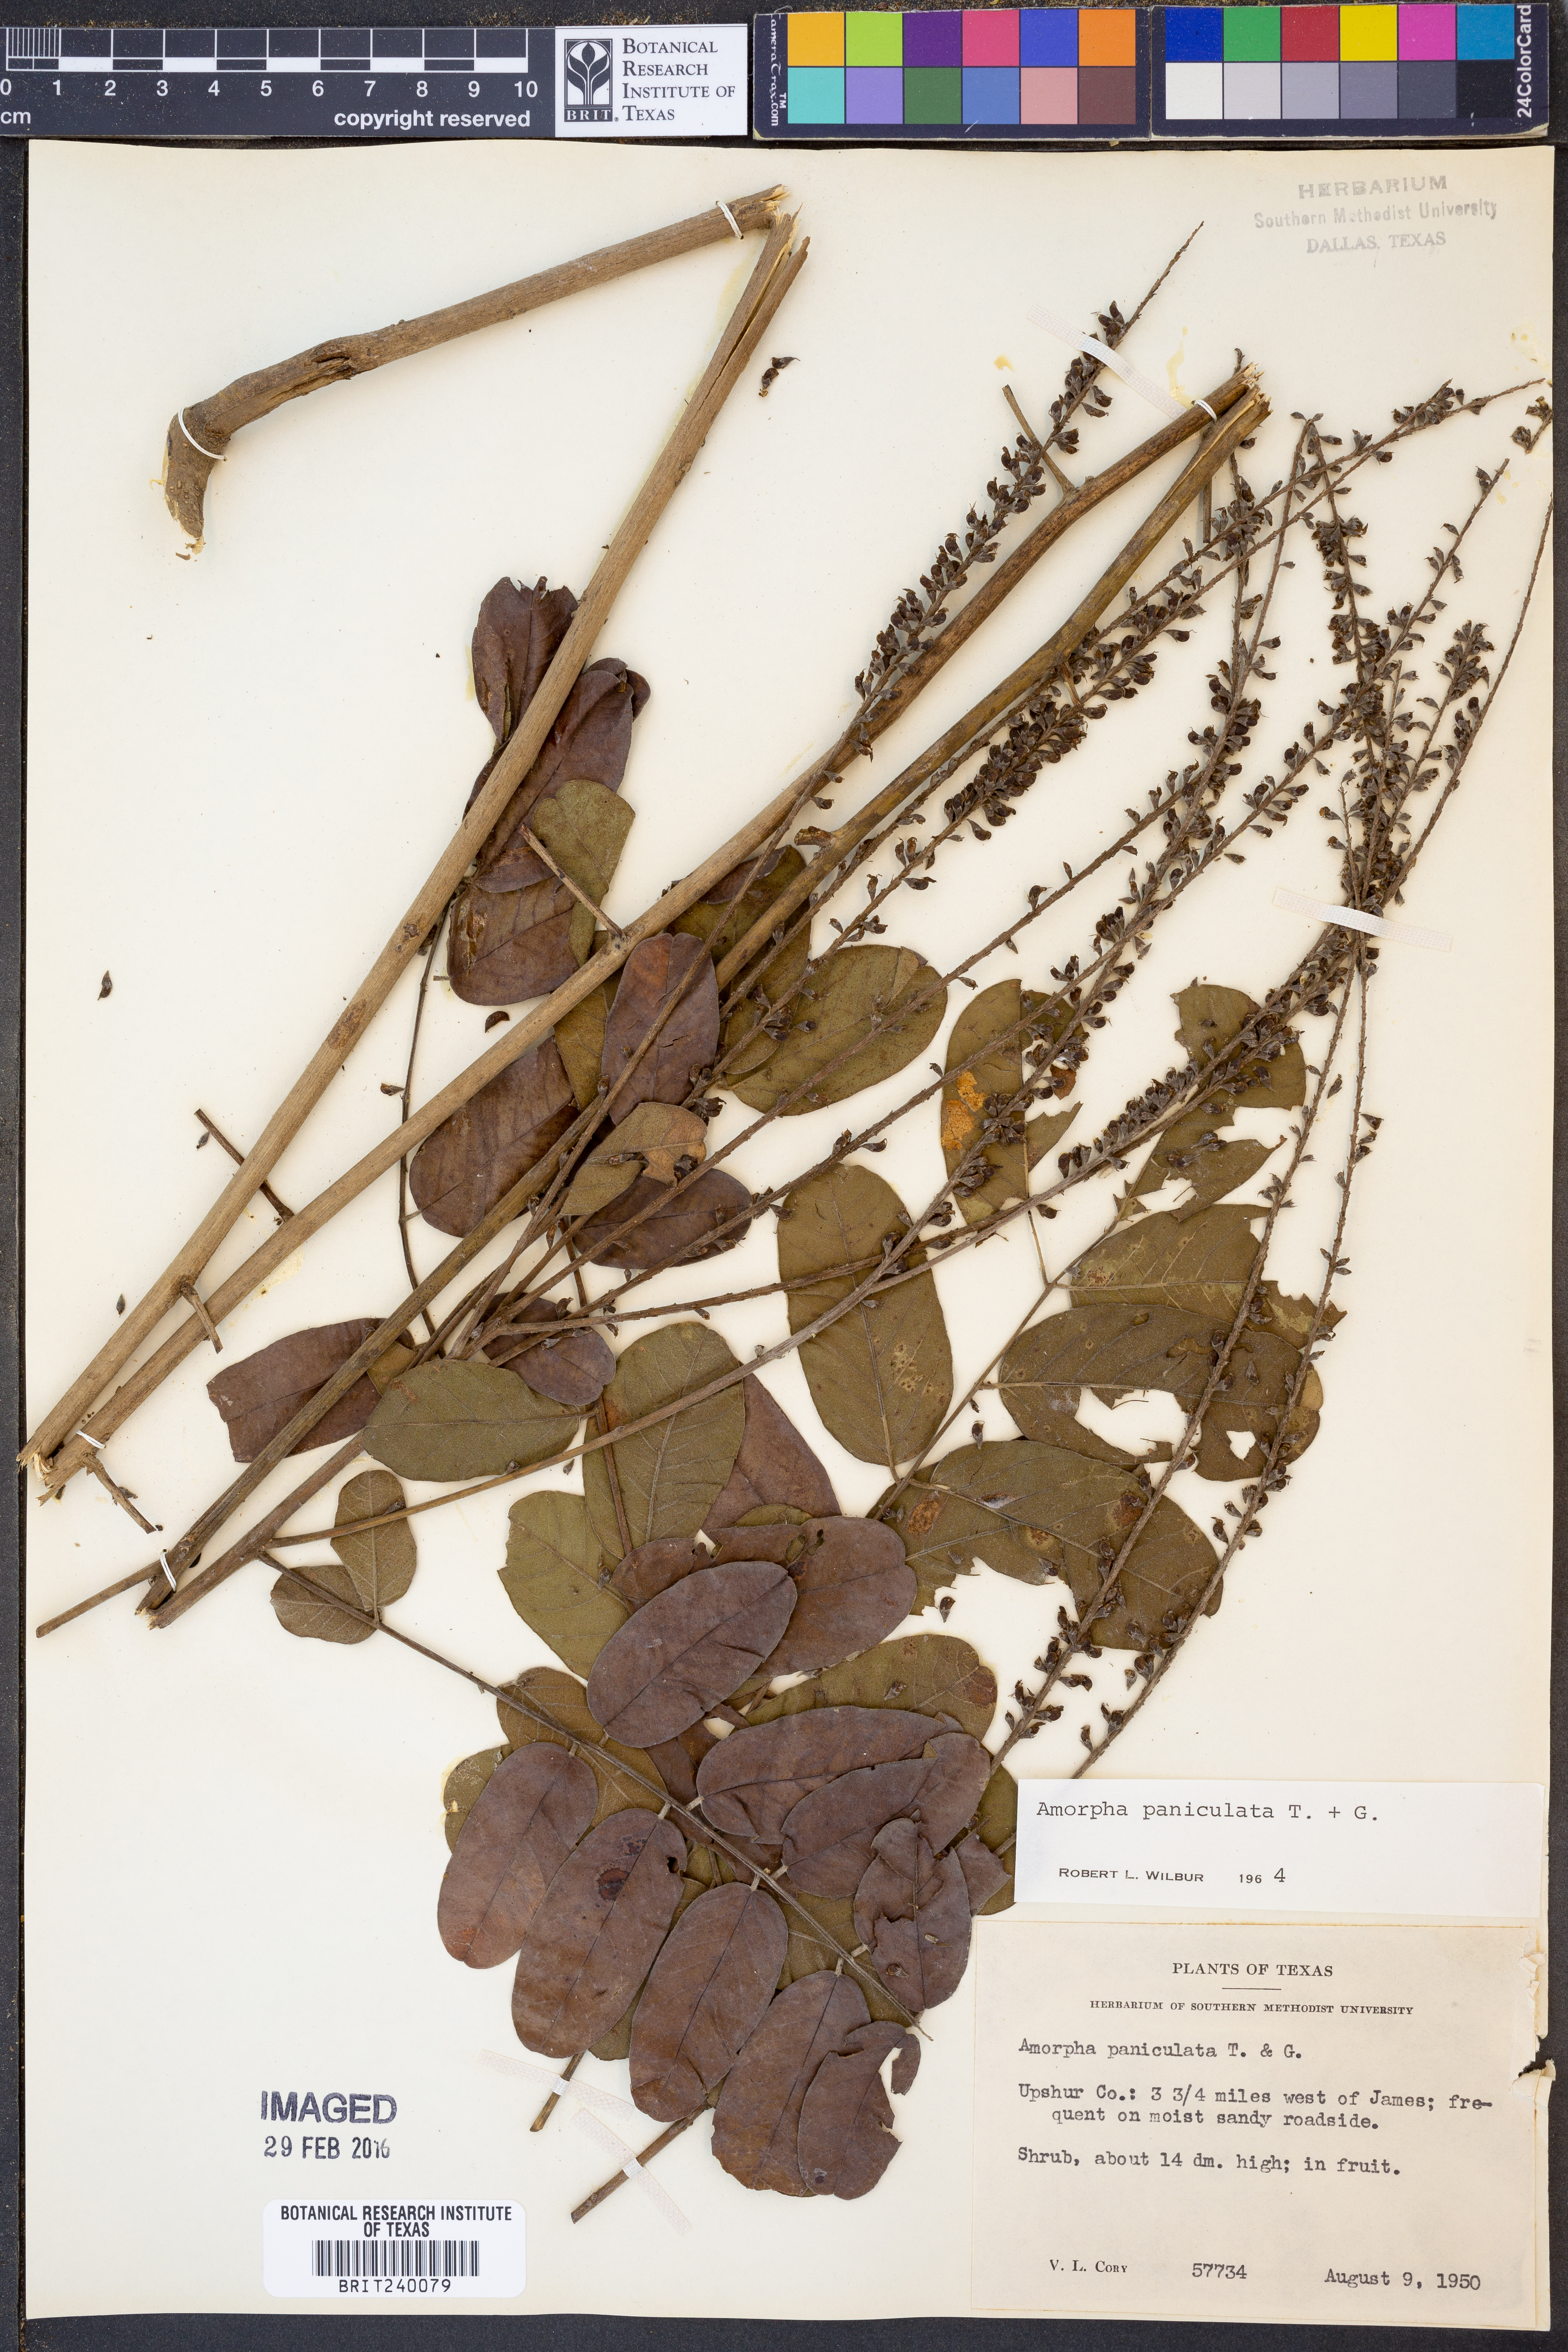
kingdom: Plantae
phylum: Tracheophyta
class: Magnoliopsida
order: Fabales
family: Fabaceae
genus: Amorpha
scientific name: Amorpha paniculata
